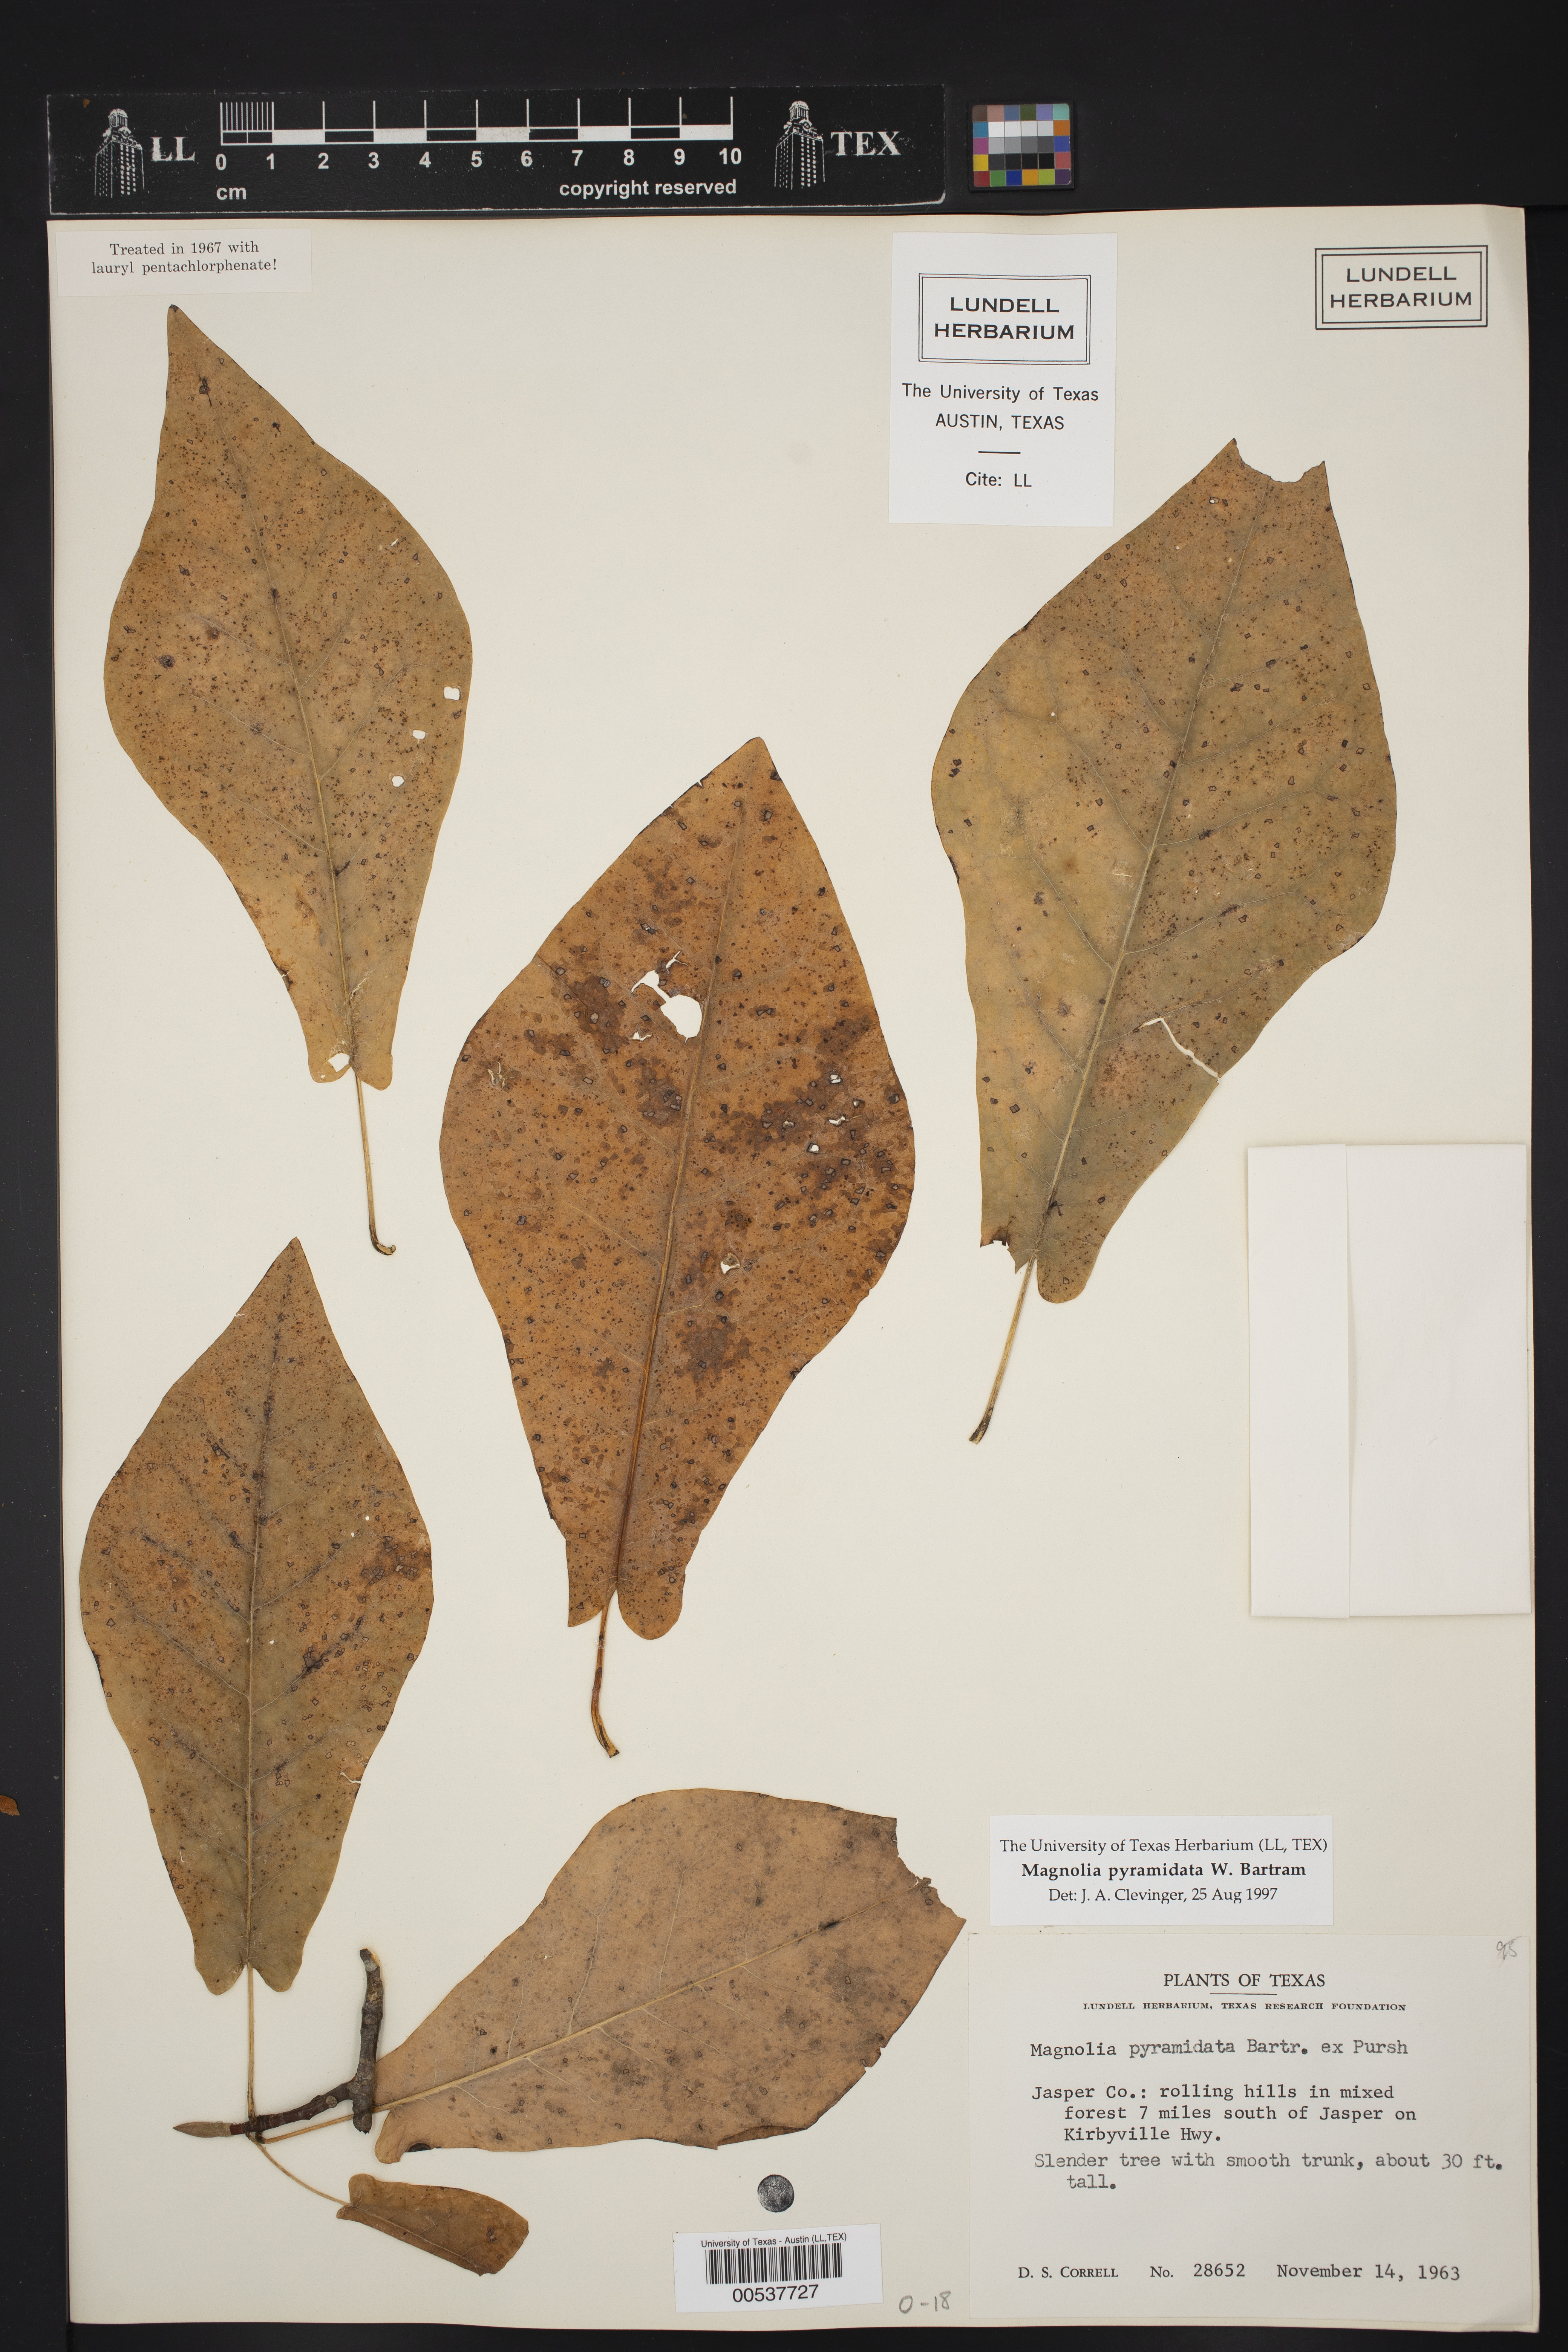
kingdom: Plantae
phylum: Tracheophyta
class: Magnoliopsida
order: Magnoliales
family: Magnoliaceae
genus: Magnolia
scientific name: Magnolia fraseri
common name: Fraser's magnolia
